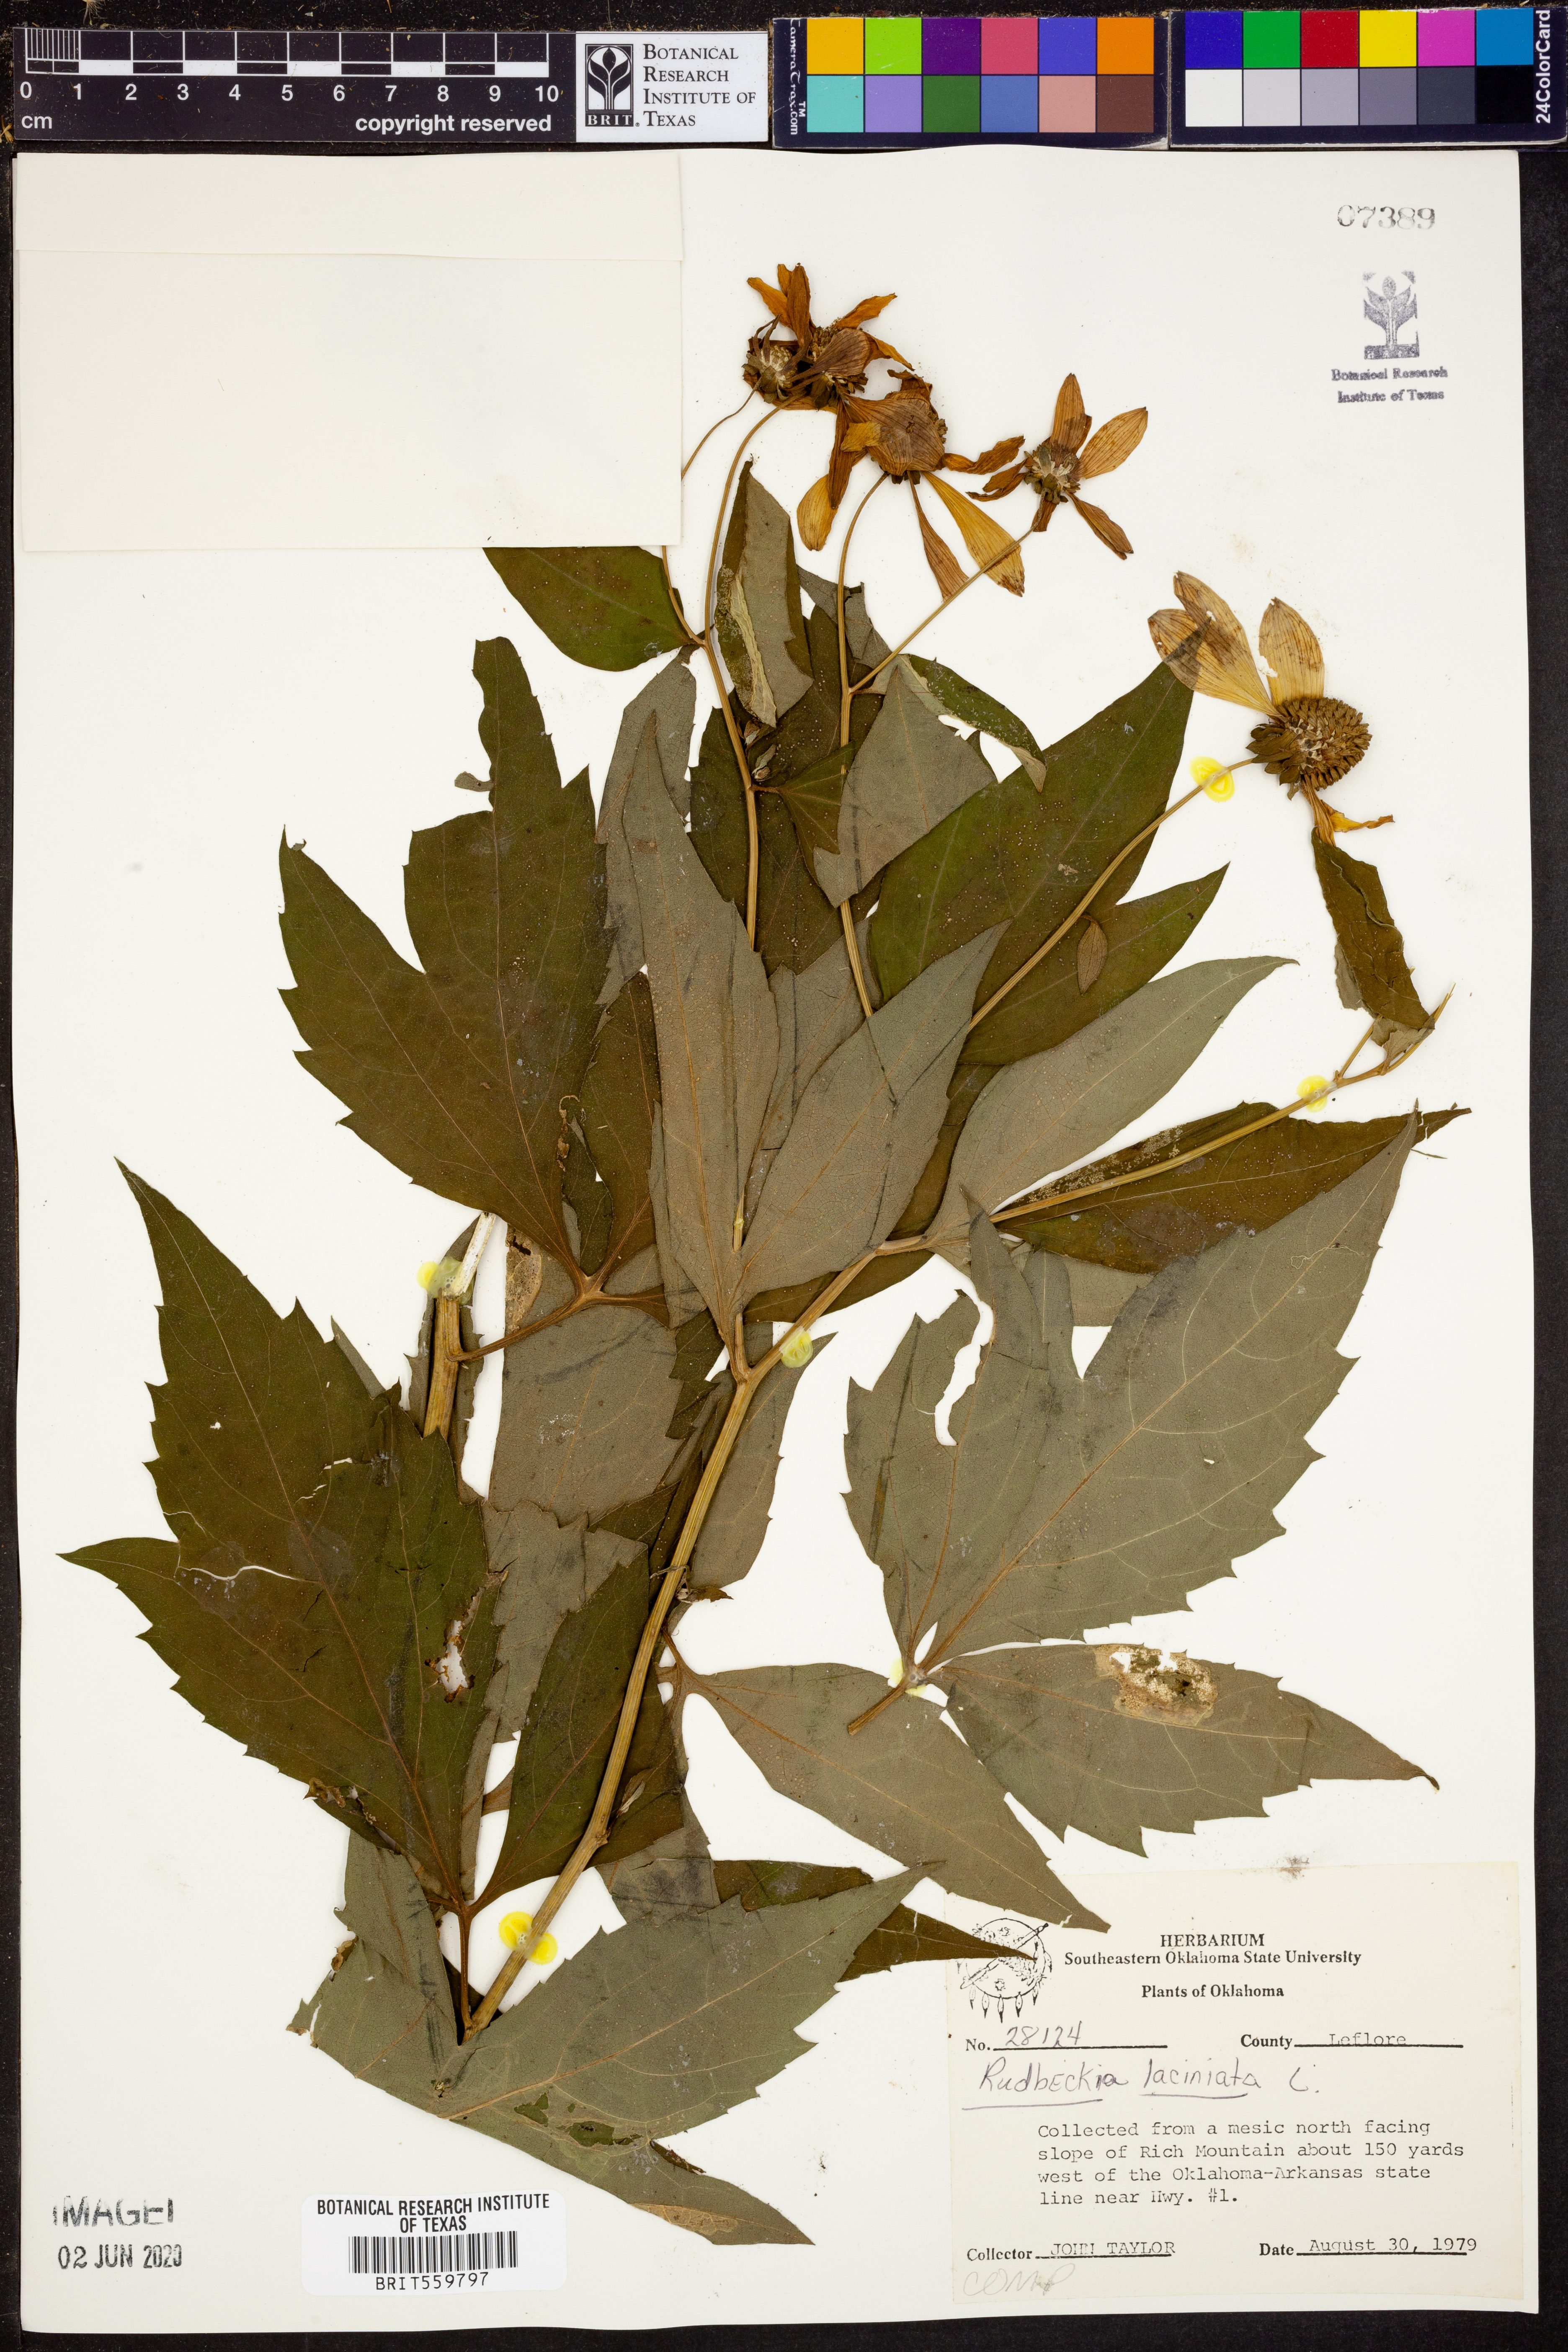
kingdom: Plantae
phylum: Tracheophyta
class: Magnoliopsida
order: Asterales
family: Asteraceae
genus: Rudbeckia
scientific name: Rudbeckia laciniata
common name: Coneflower
